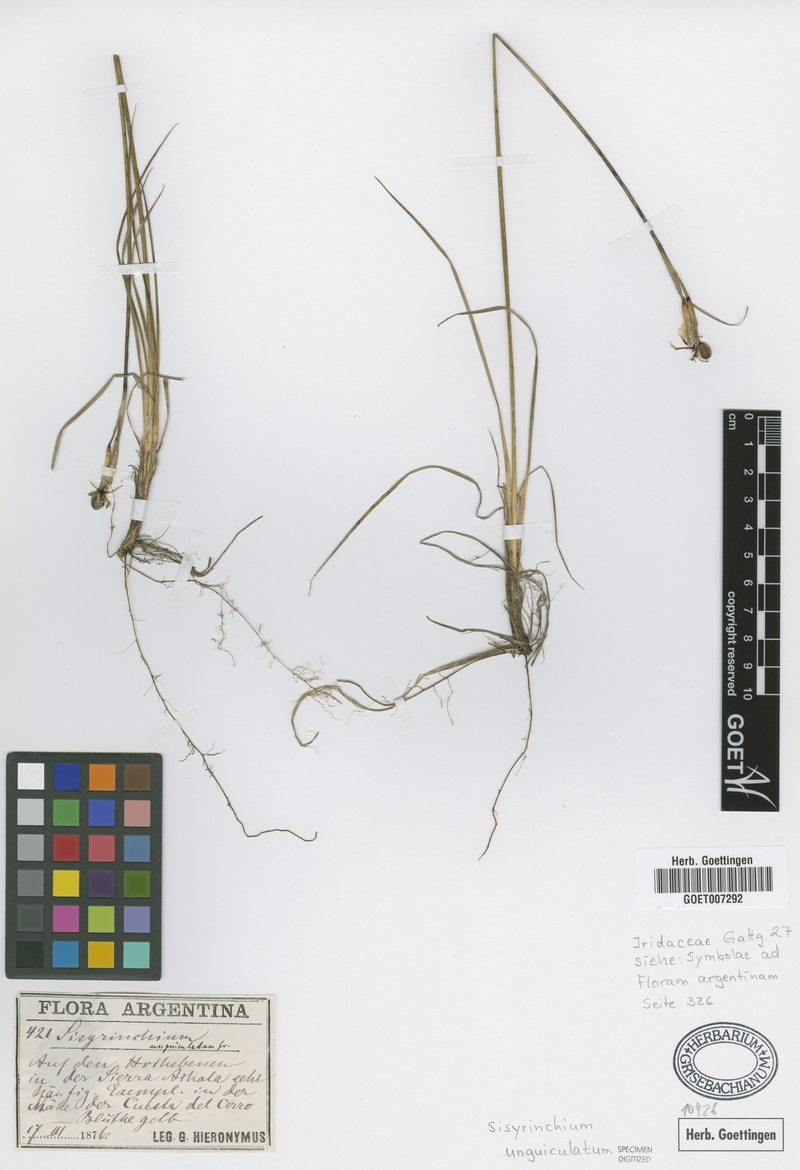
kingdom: Plantae
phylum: Tracheophyta
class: Liliopsida
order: Asparagales
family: Iridaceae
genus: Sisyrinchium
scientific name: Sisyrinchium unguiculatum
